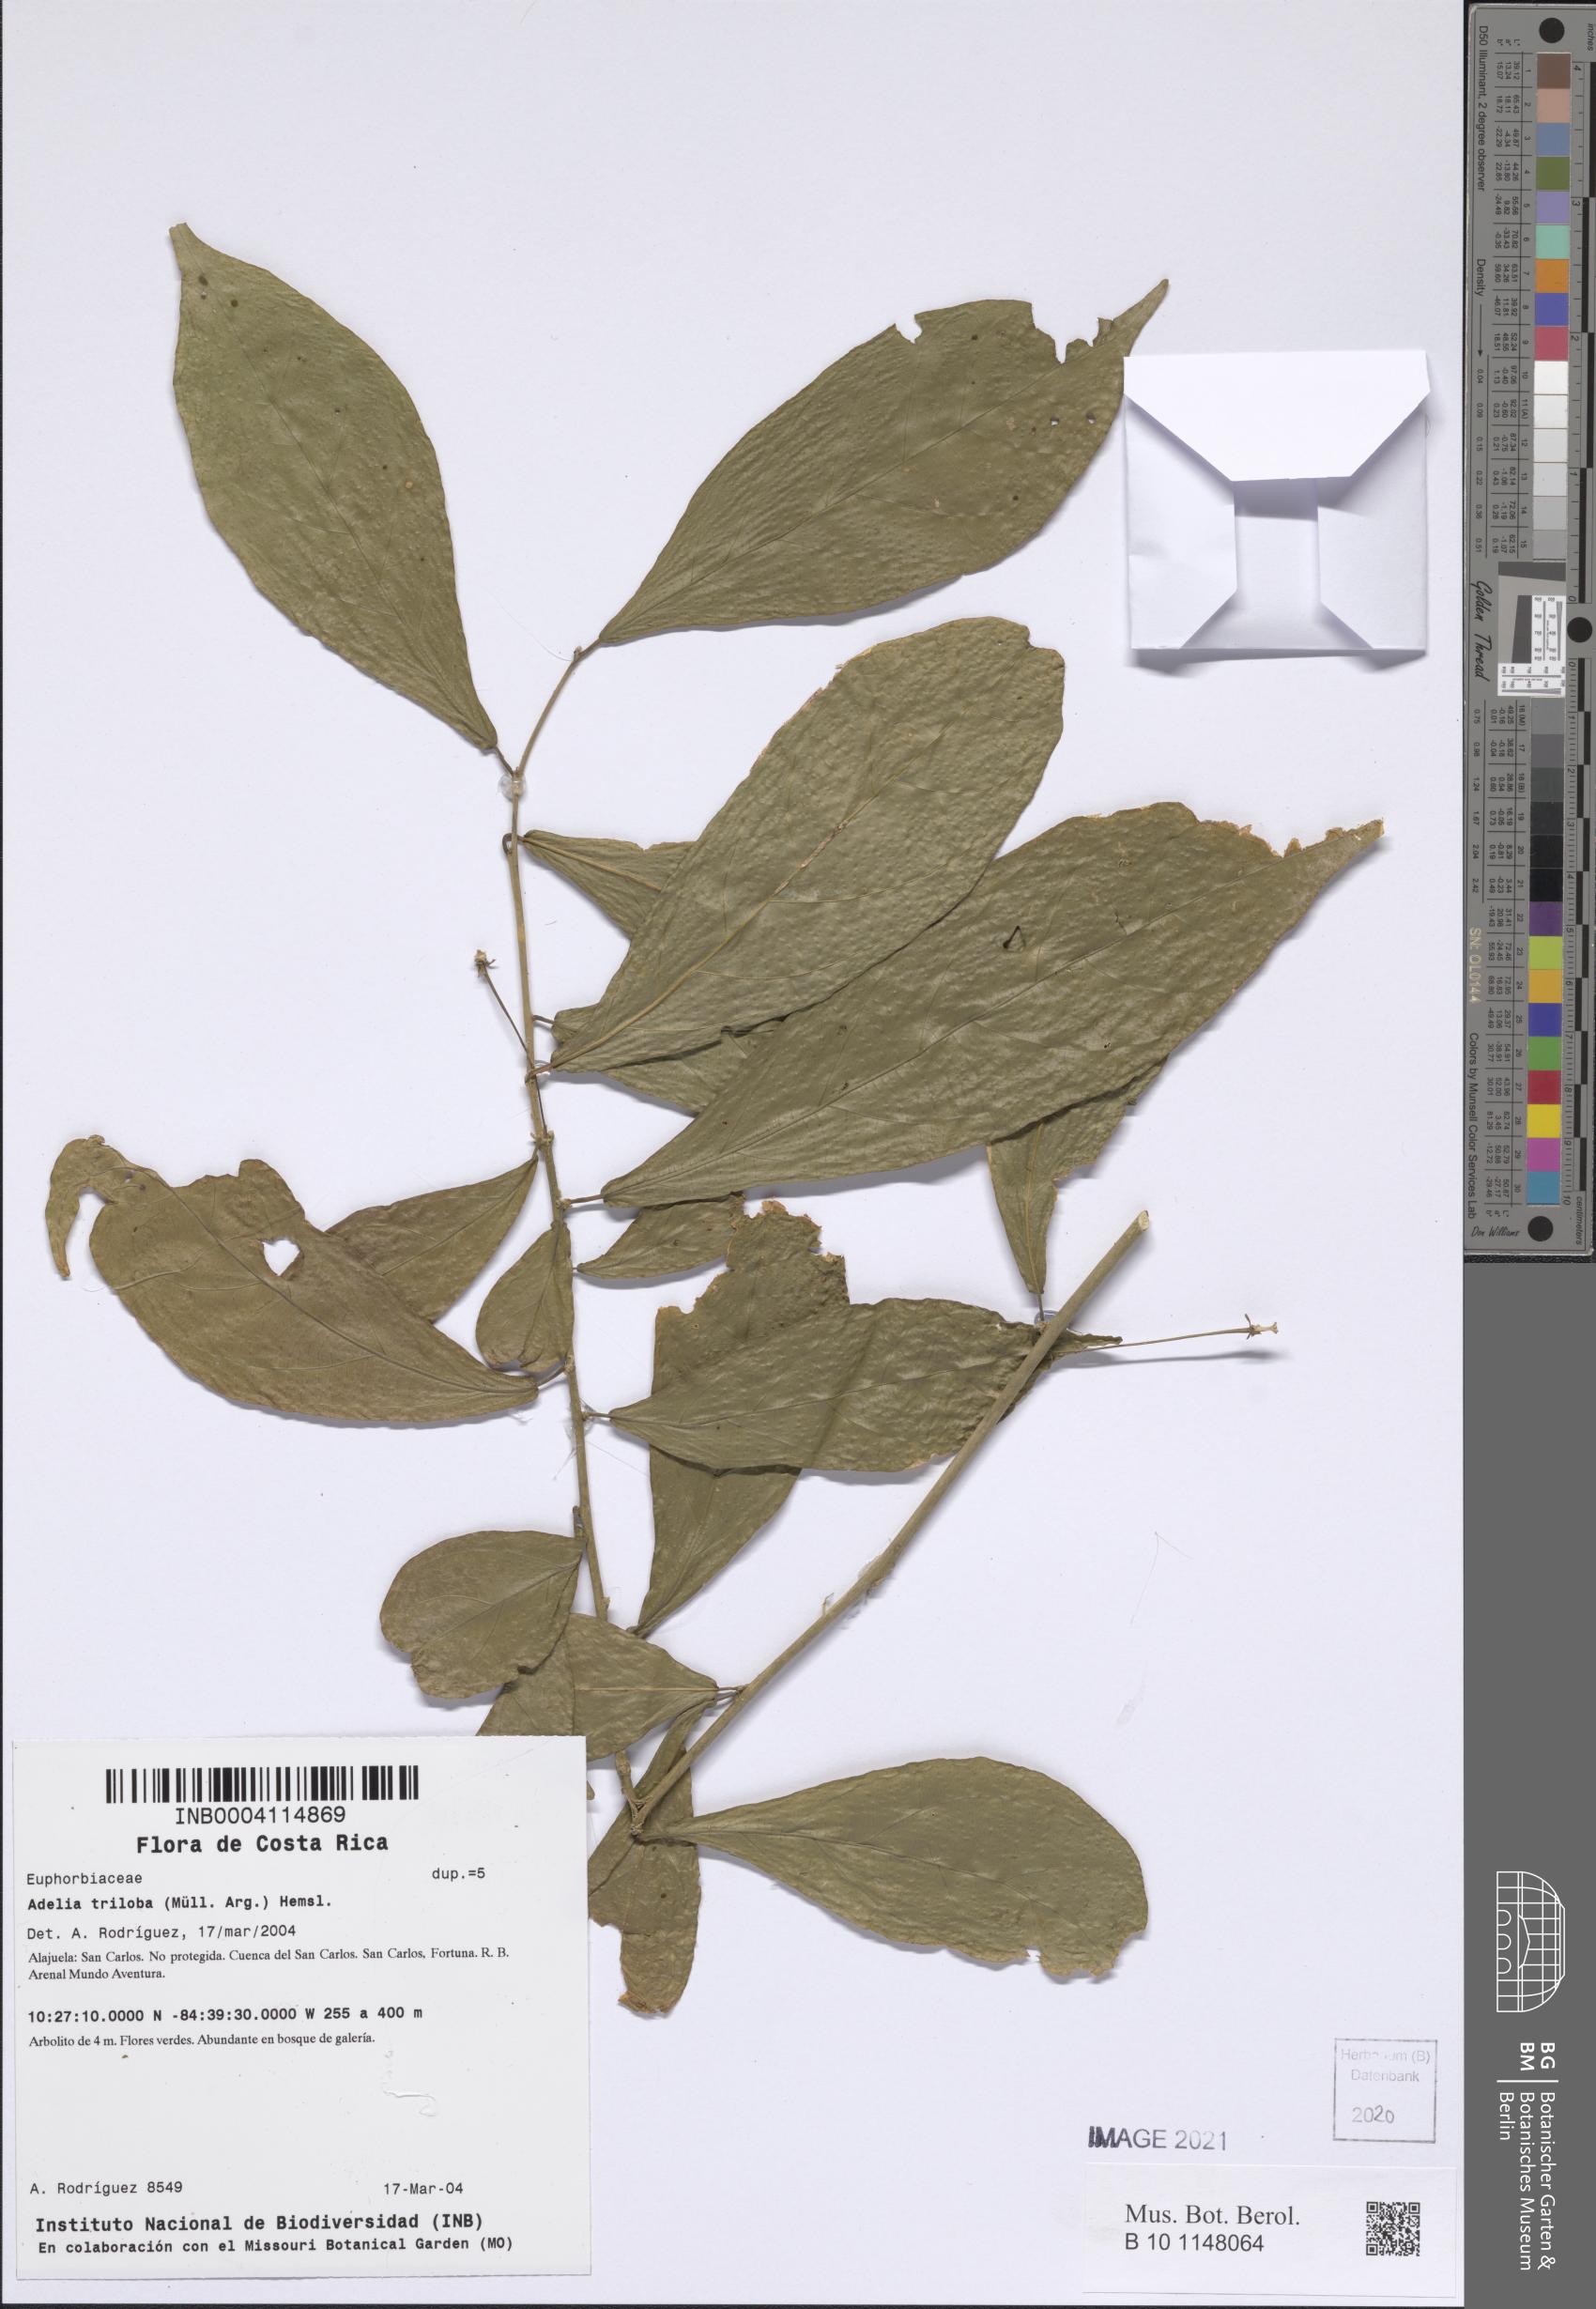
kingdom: Plantae
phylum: Tracheophyta
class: Magnoliopsida
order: Dipsacales
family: Caprifoliaceae
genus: Zabelia
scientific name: Zabelia triflora
